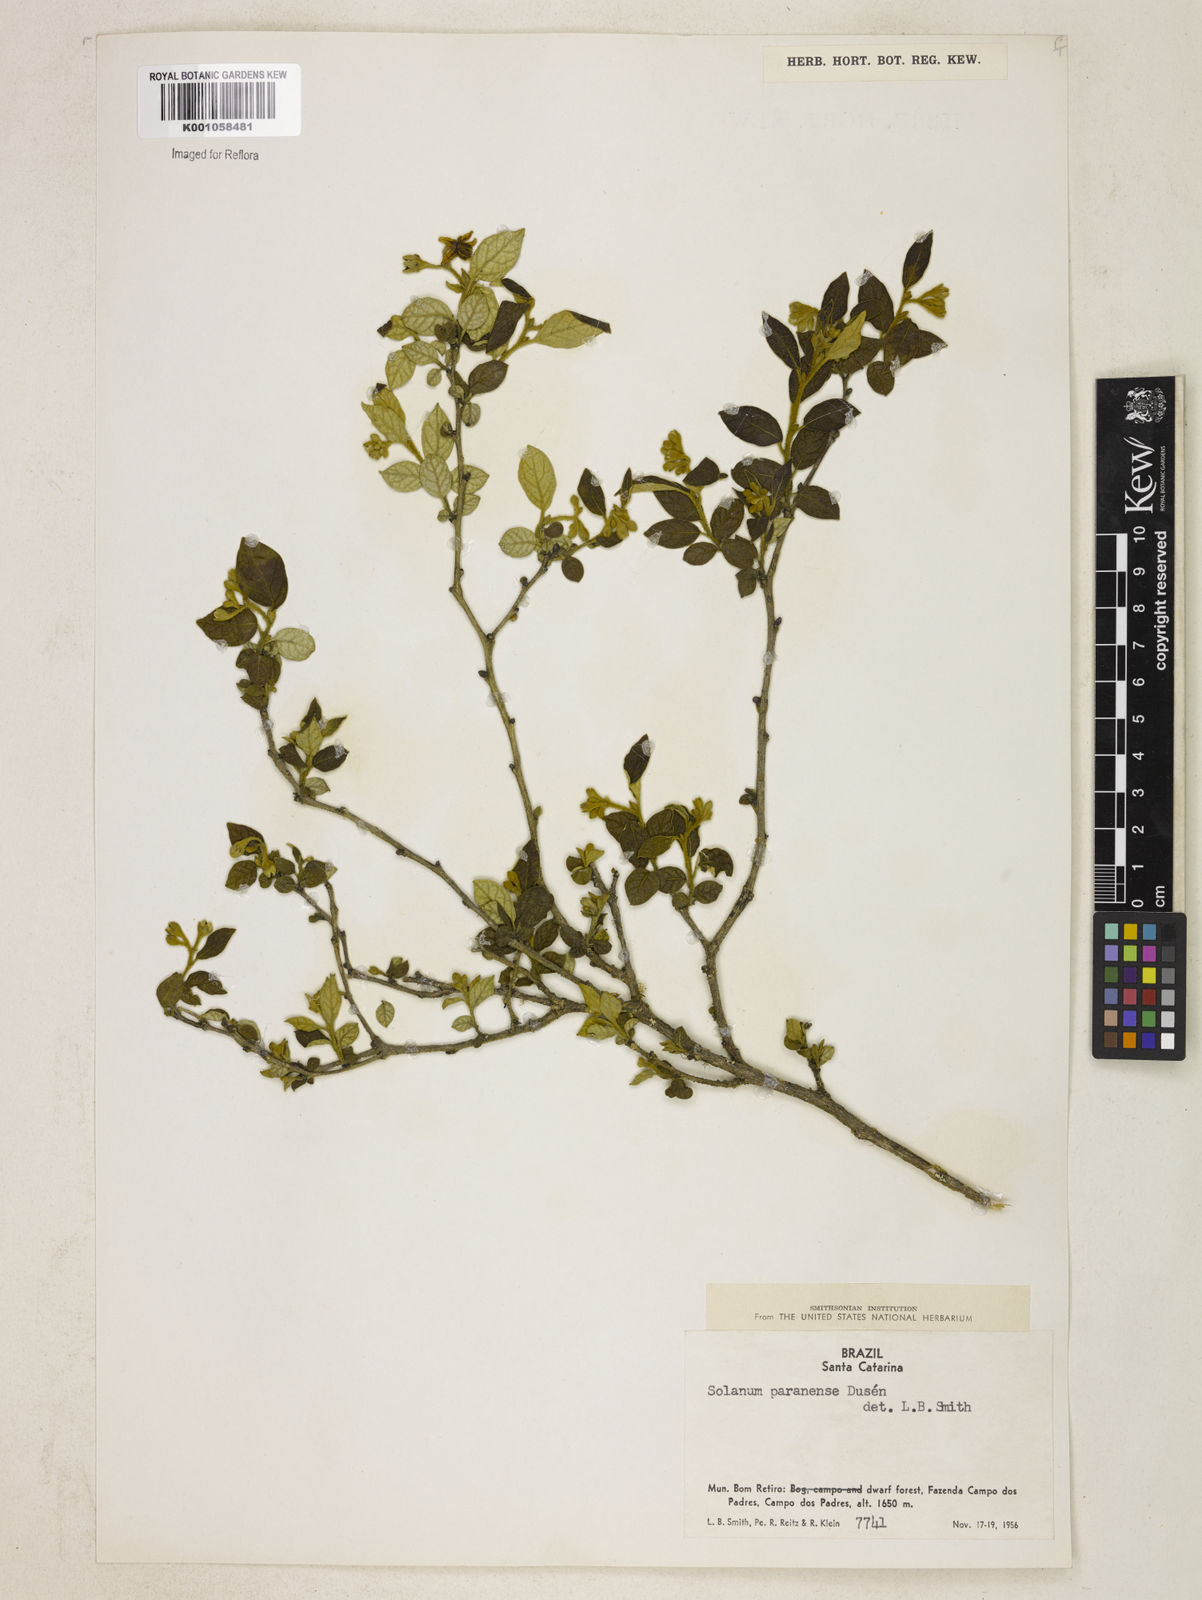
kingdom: Plantae
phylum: Tracheophyta
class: Magnoliopsida
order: Solanales
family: Solanaceae
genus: Solanum
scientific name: Solanum
